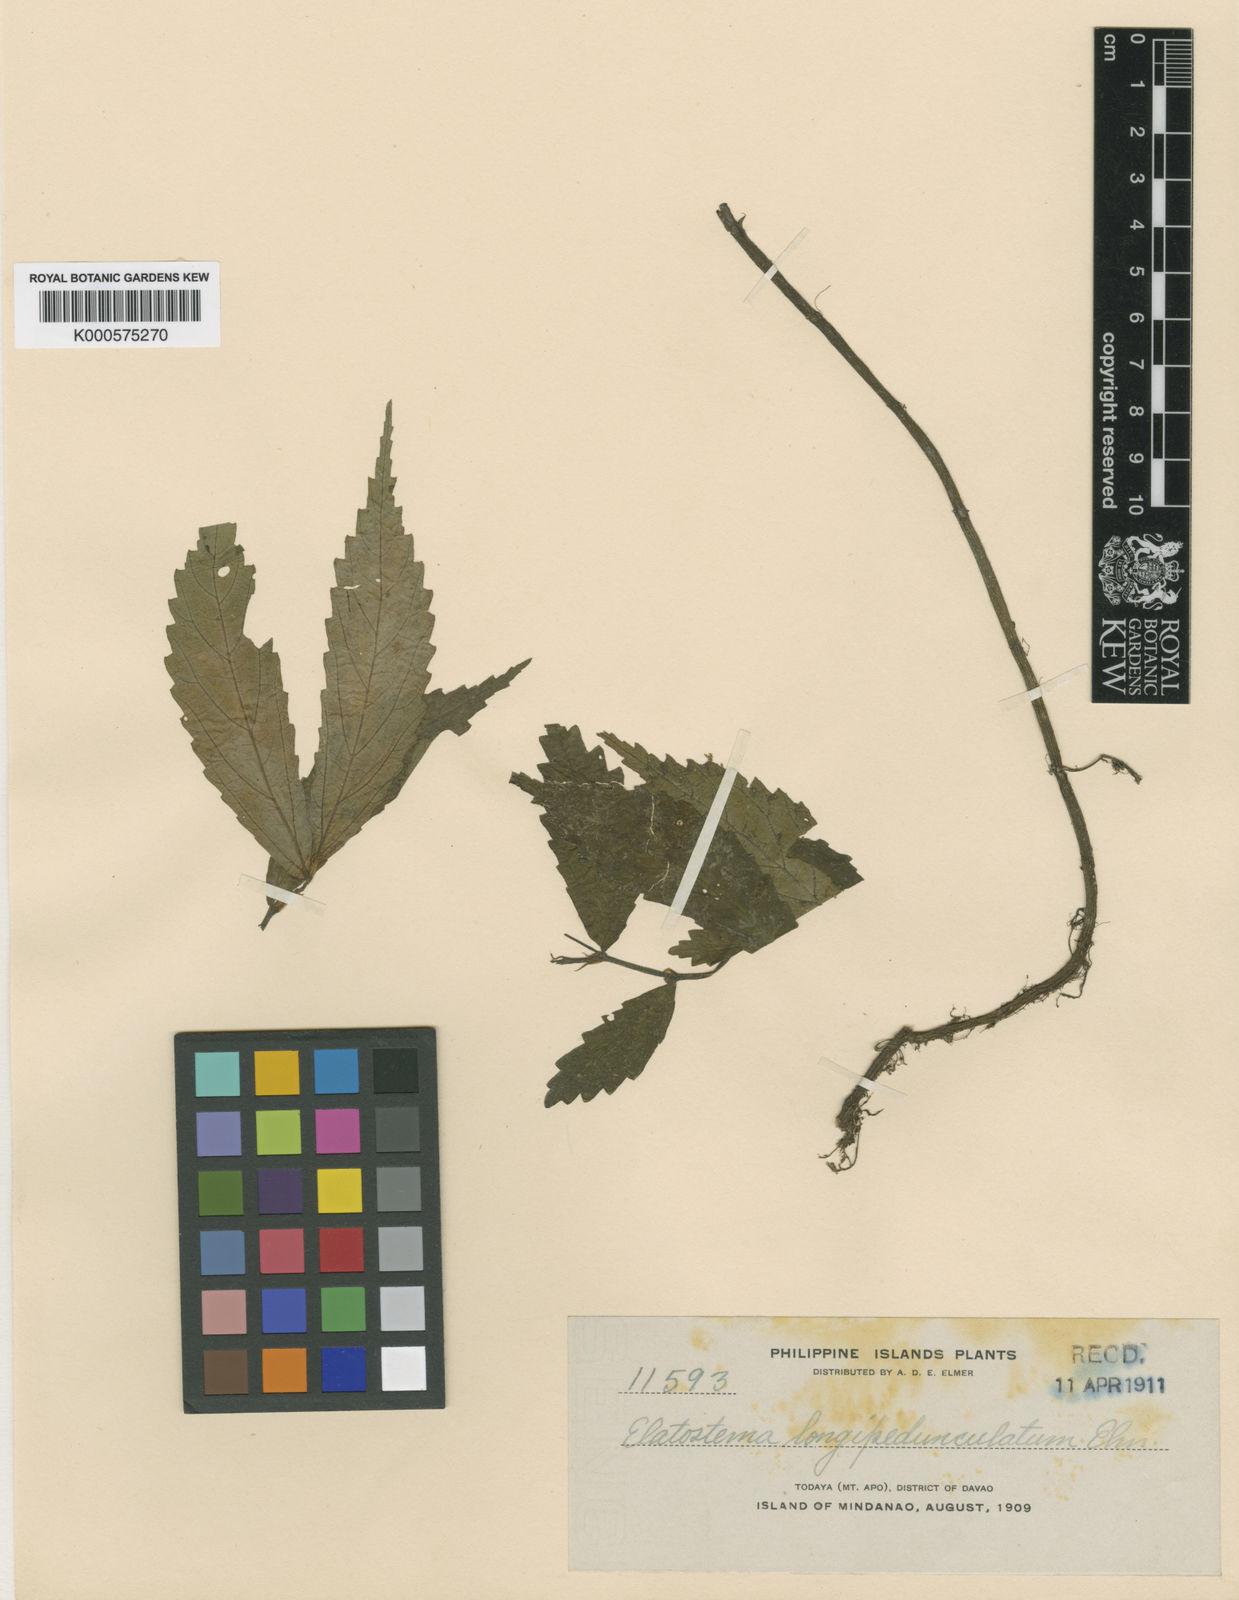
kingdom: Plantae
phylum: Tracheophyta
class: Magnoliopsida
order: Rosales
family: Urticaceae
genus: Elatostema
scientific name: Elatostema longipedunculatum
